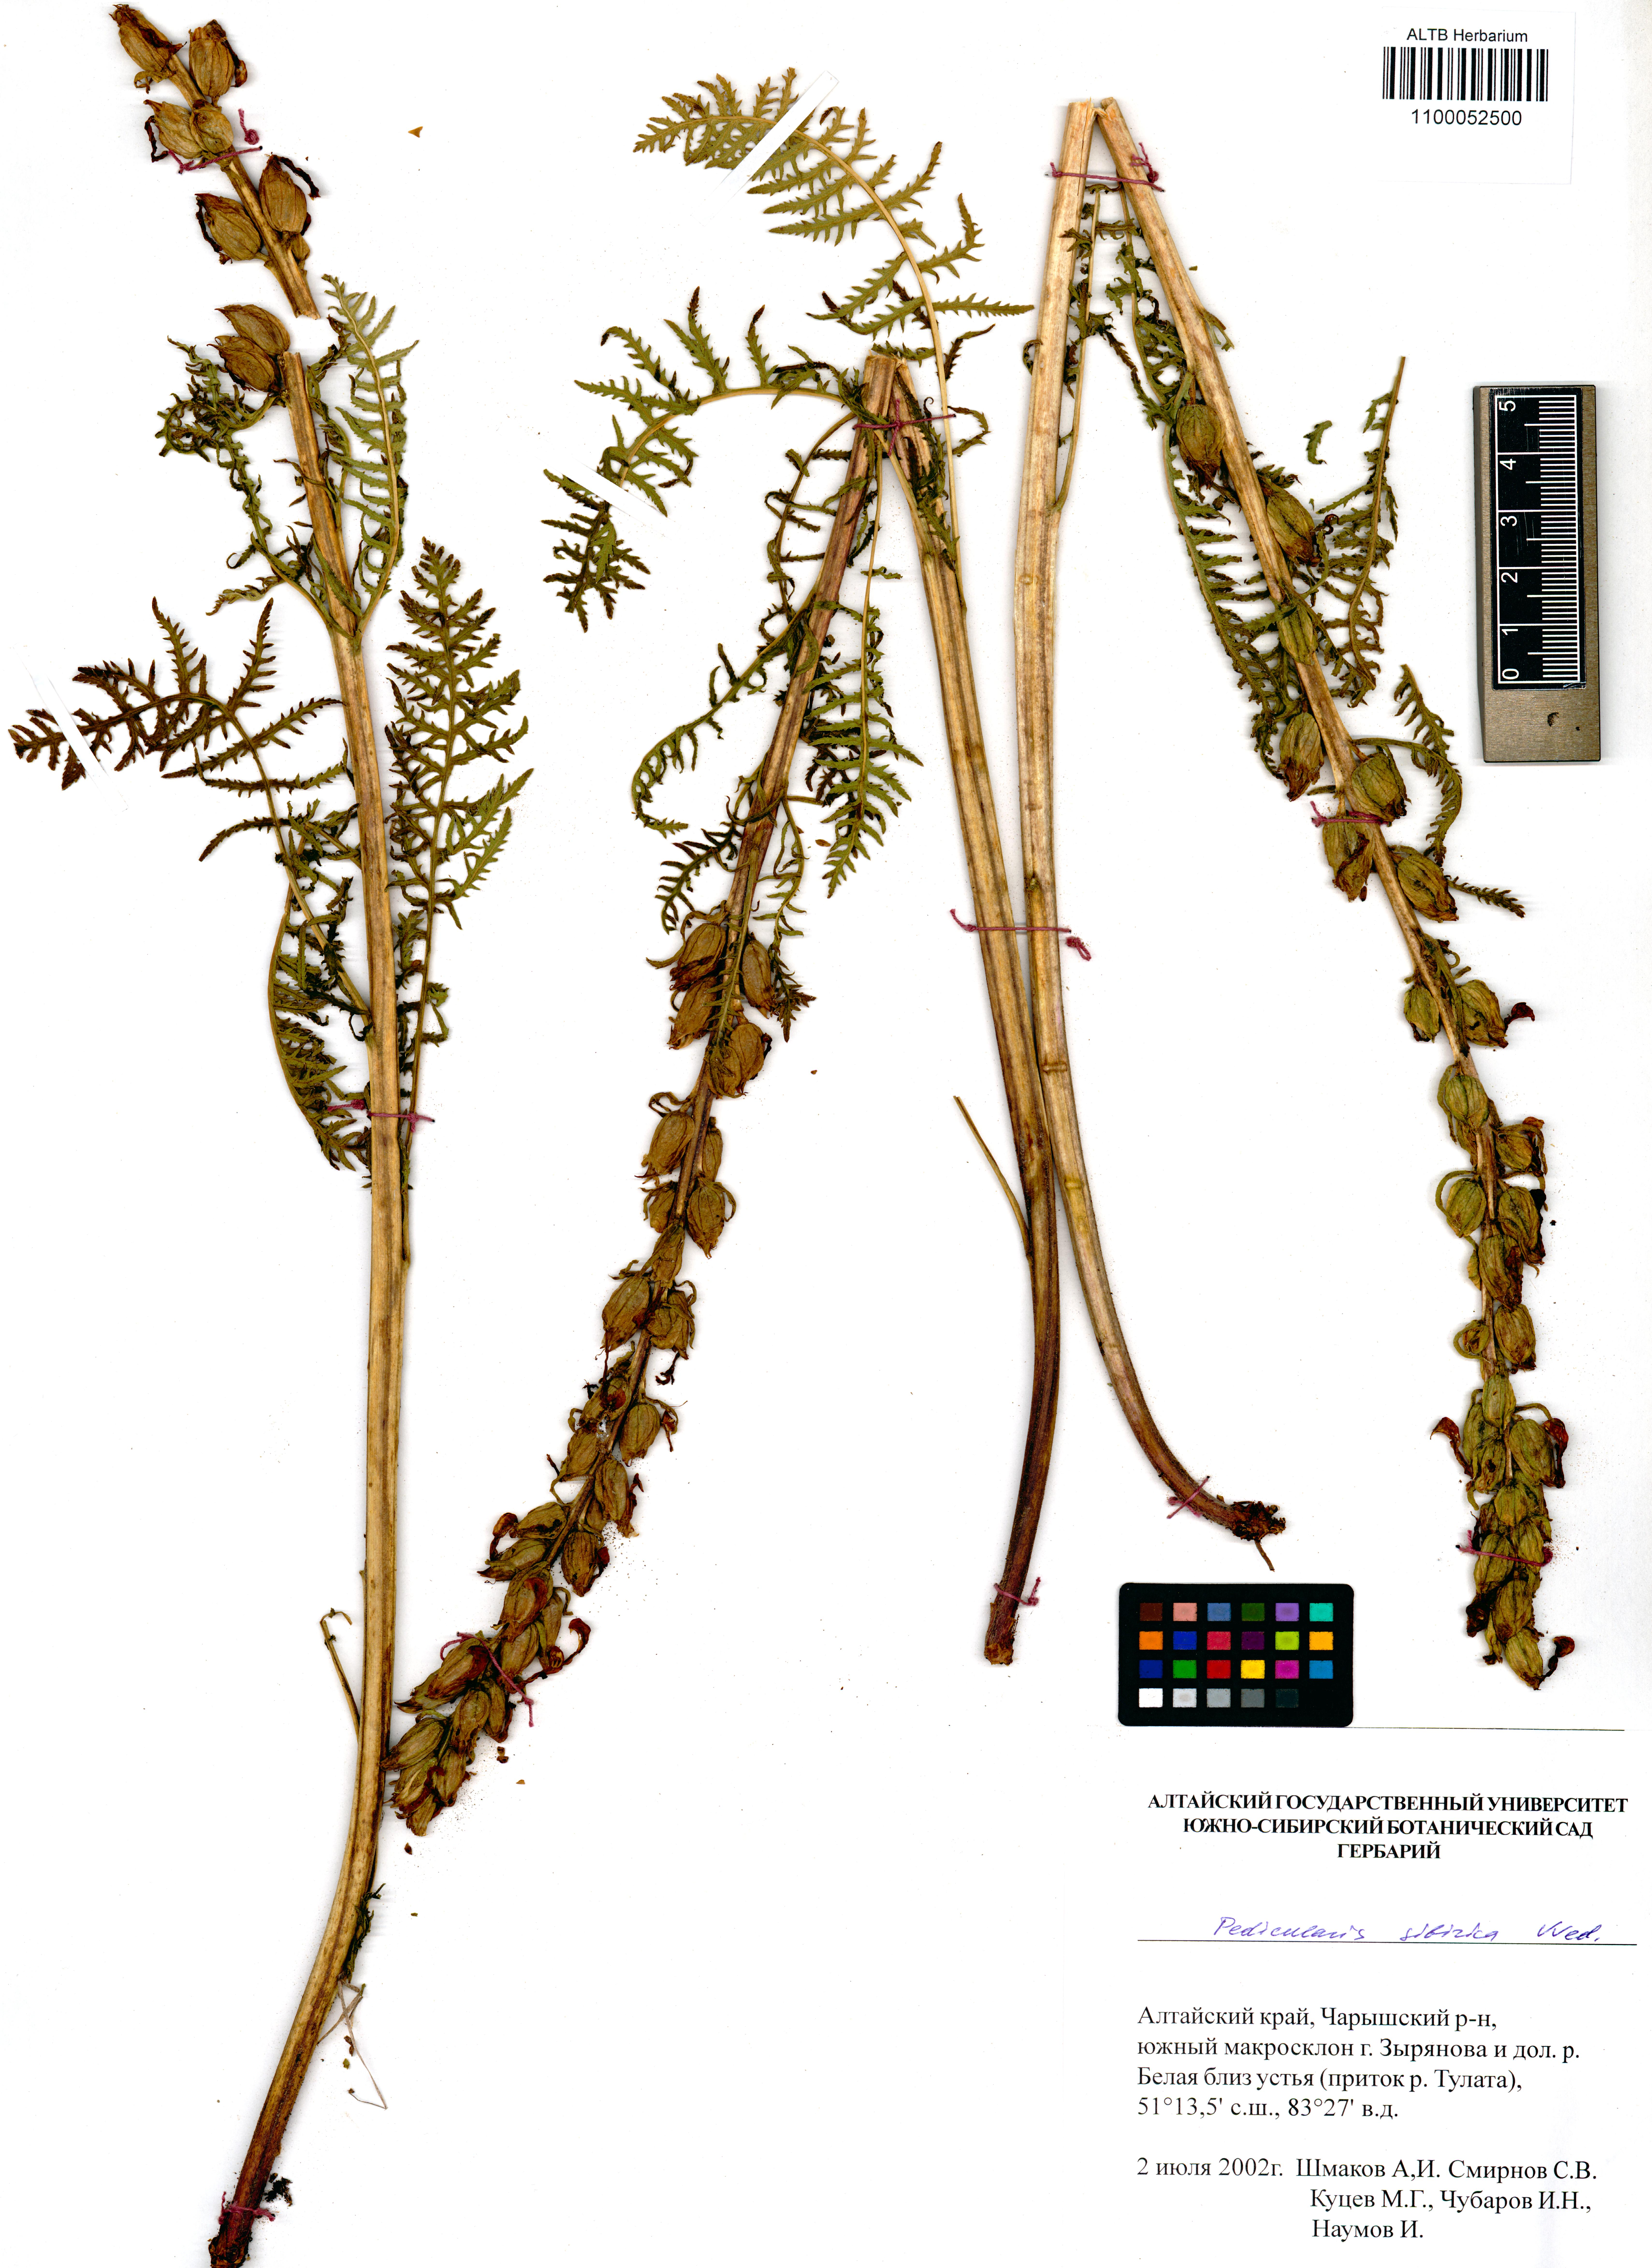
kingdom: Plantae
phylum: Tracheophyta
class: Magnoliopsida
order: Lamiales
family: Orobanchaceae
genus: Pedicularis
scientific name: Pedicularis sibirica
